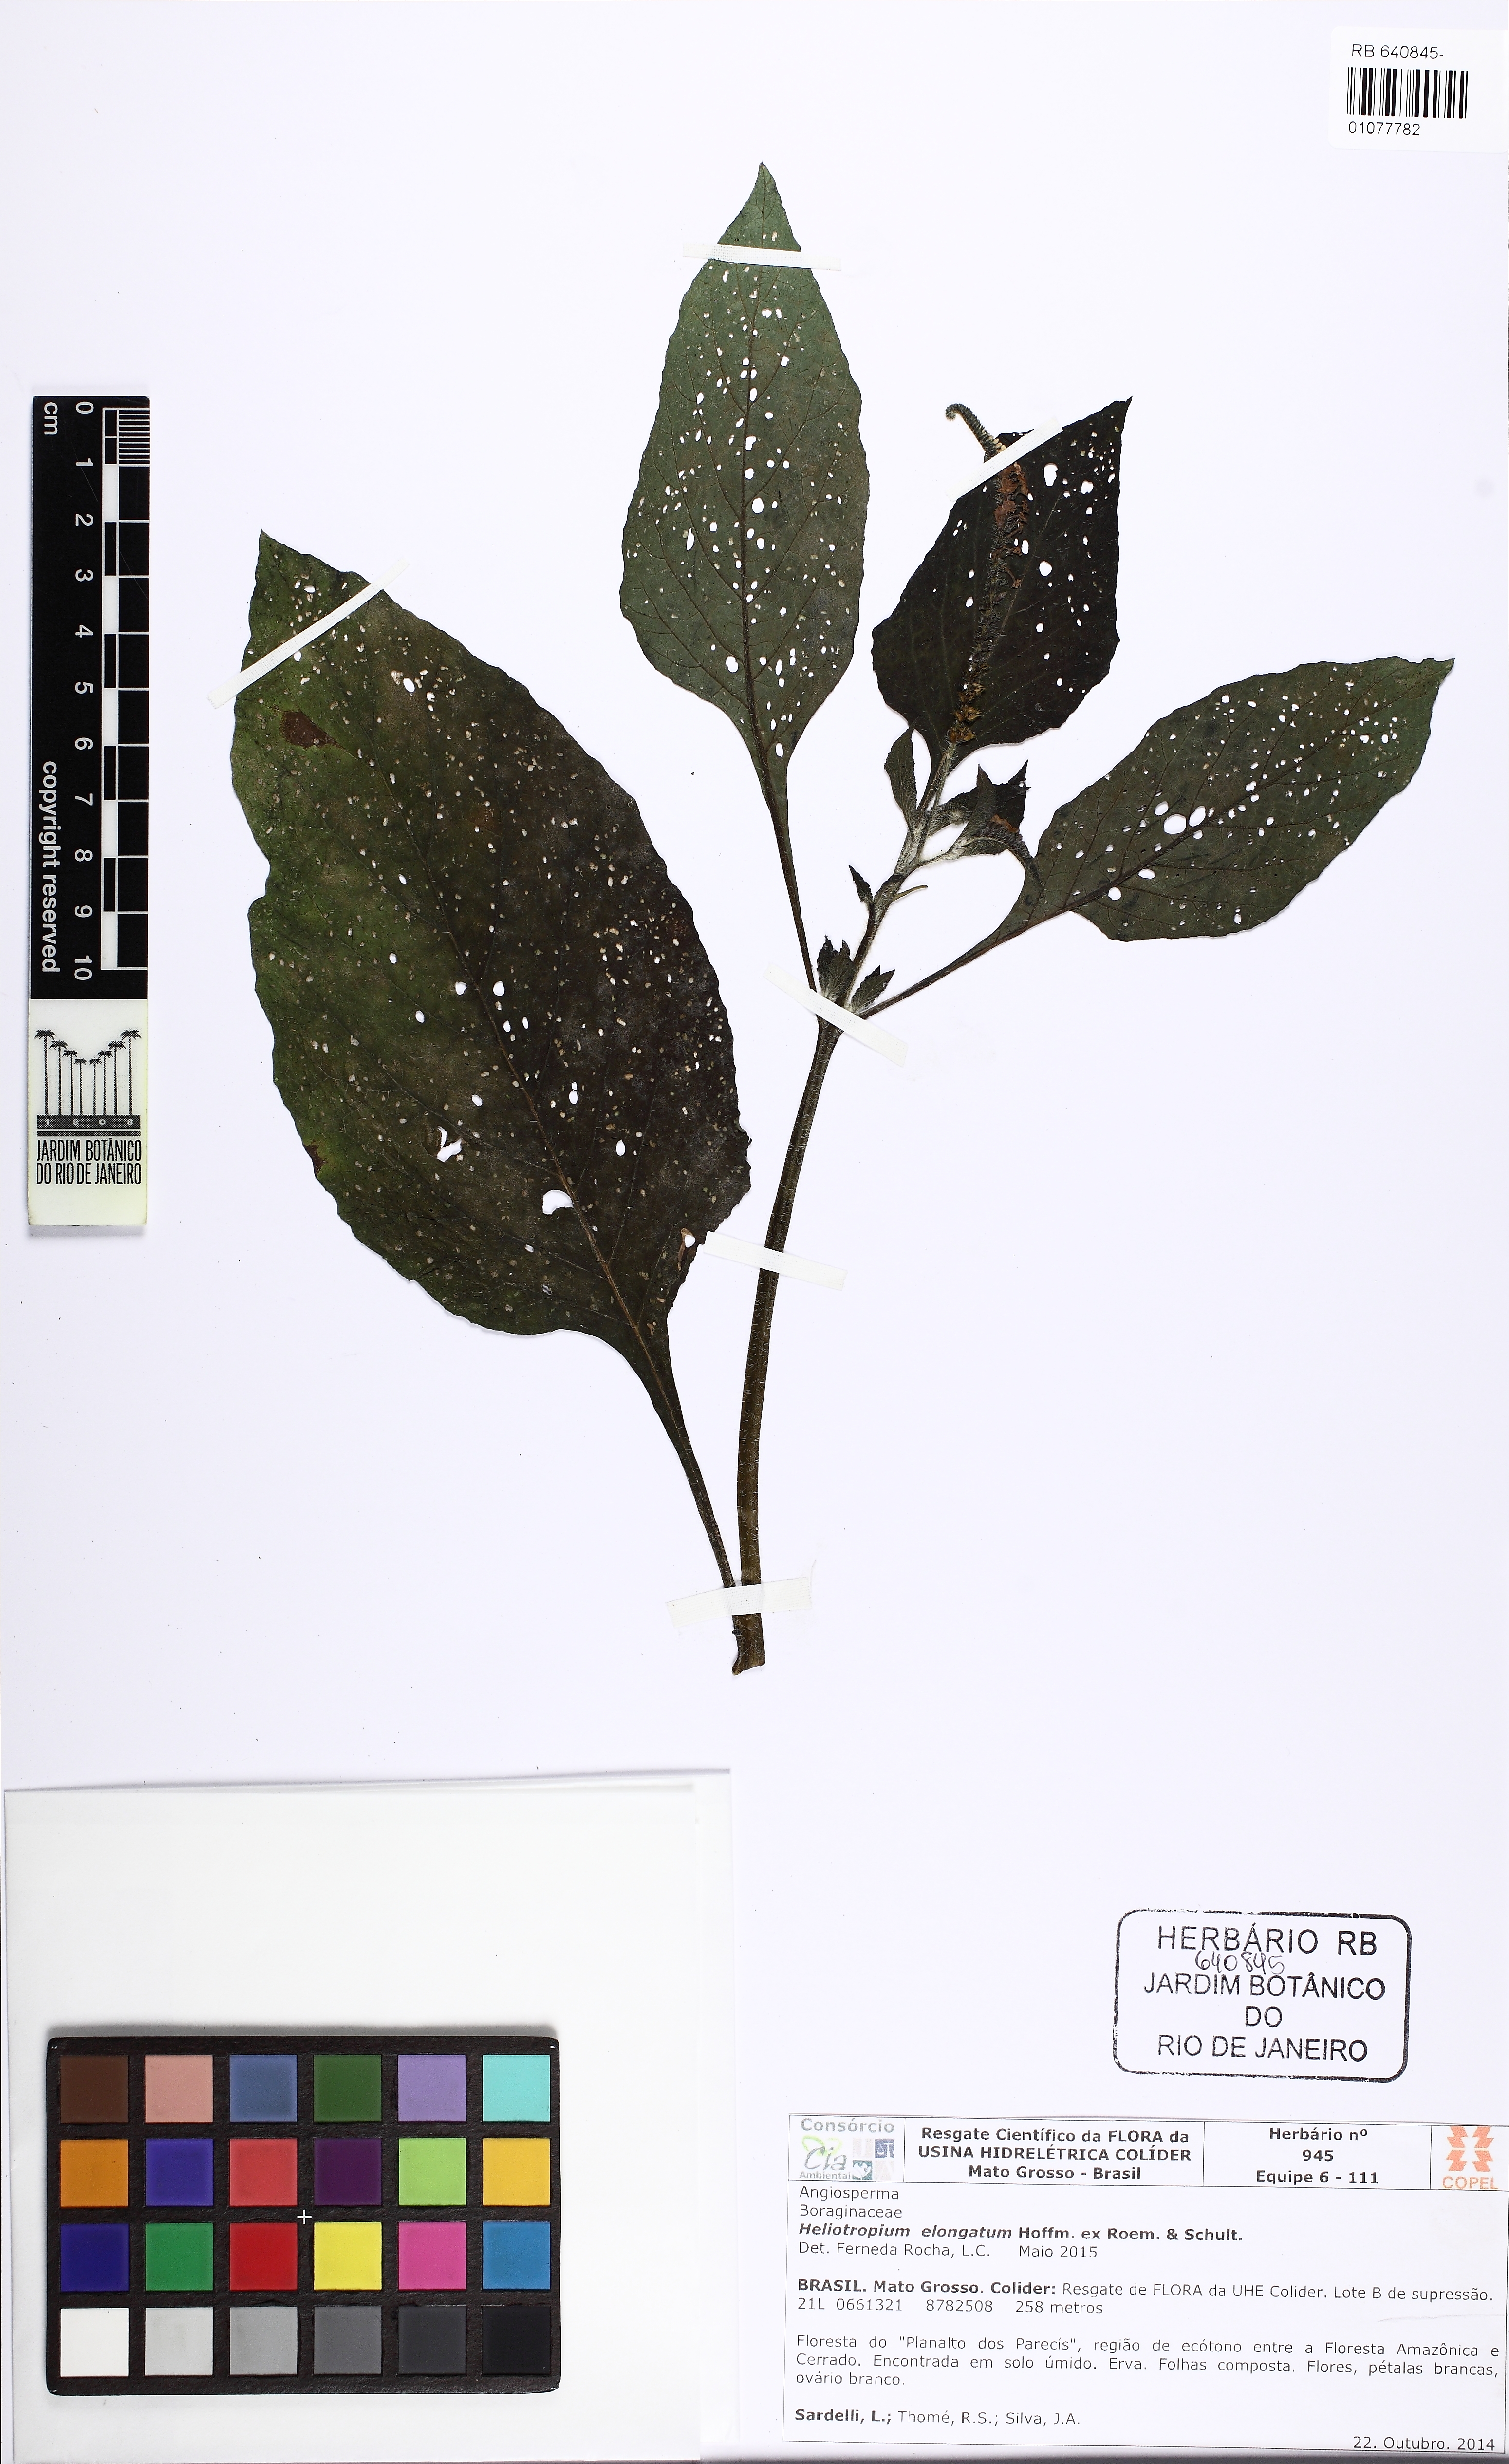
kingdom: Plantae
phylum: Tracheophyta
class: Magnoliopsida
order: Boraginales
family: Heliotropiaceae
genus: Heliotropium
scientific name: Heliotropium elongatum
